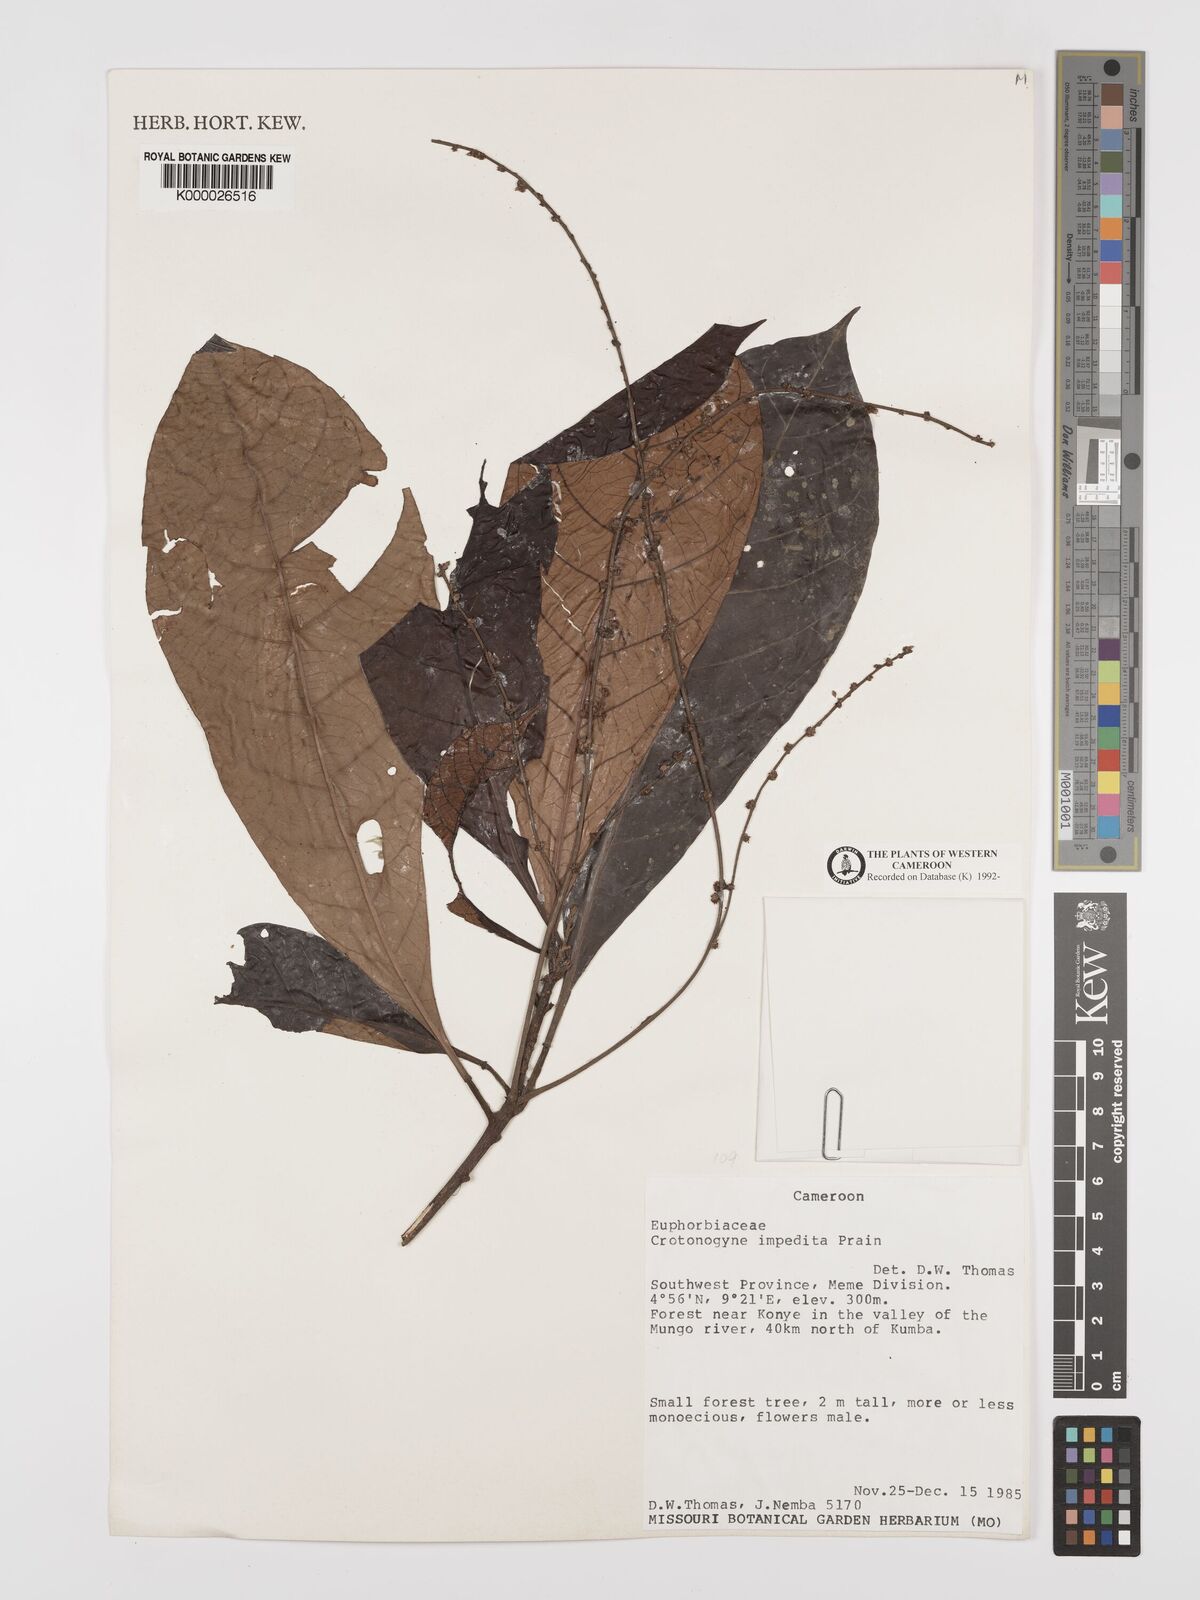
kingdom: Plantae
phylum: Tracheophyta
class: Magnoliopsida
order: Malpighiales
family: Euphorbiaceae
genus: Crotonogyne
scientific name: Crotonogyne poggei
